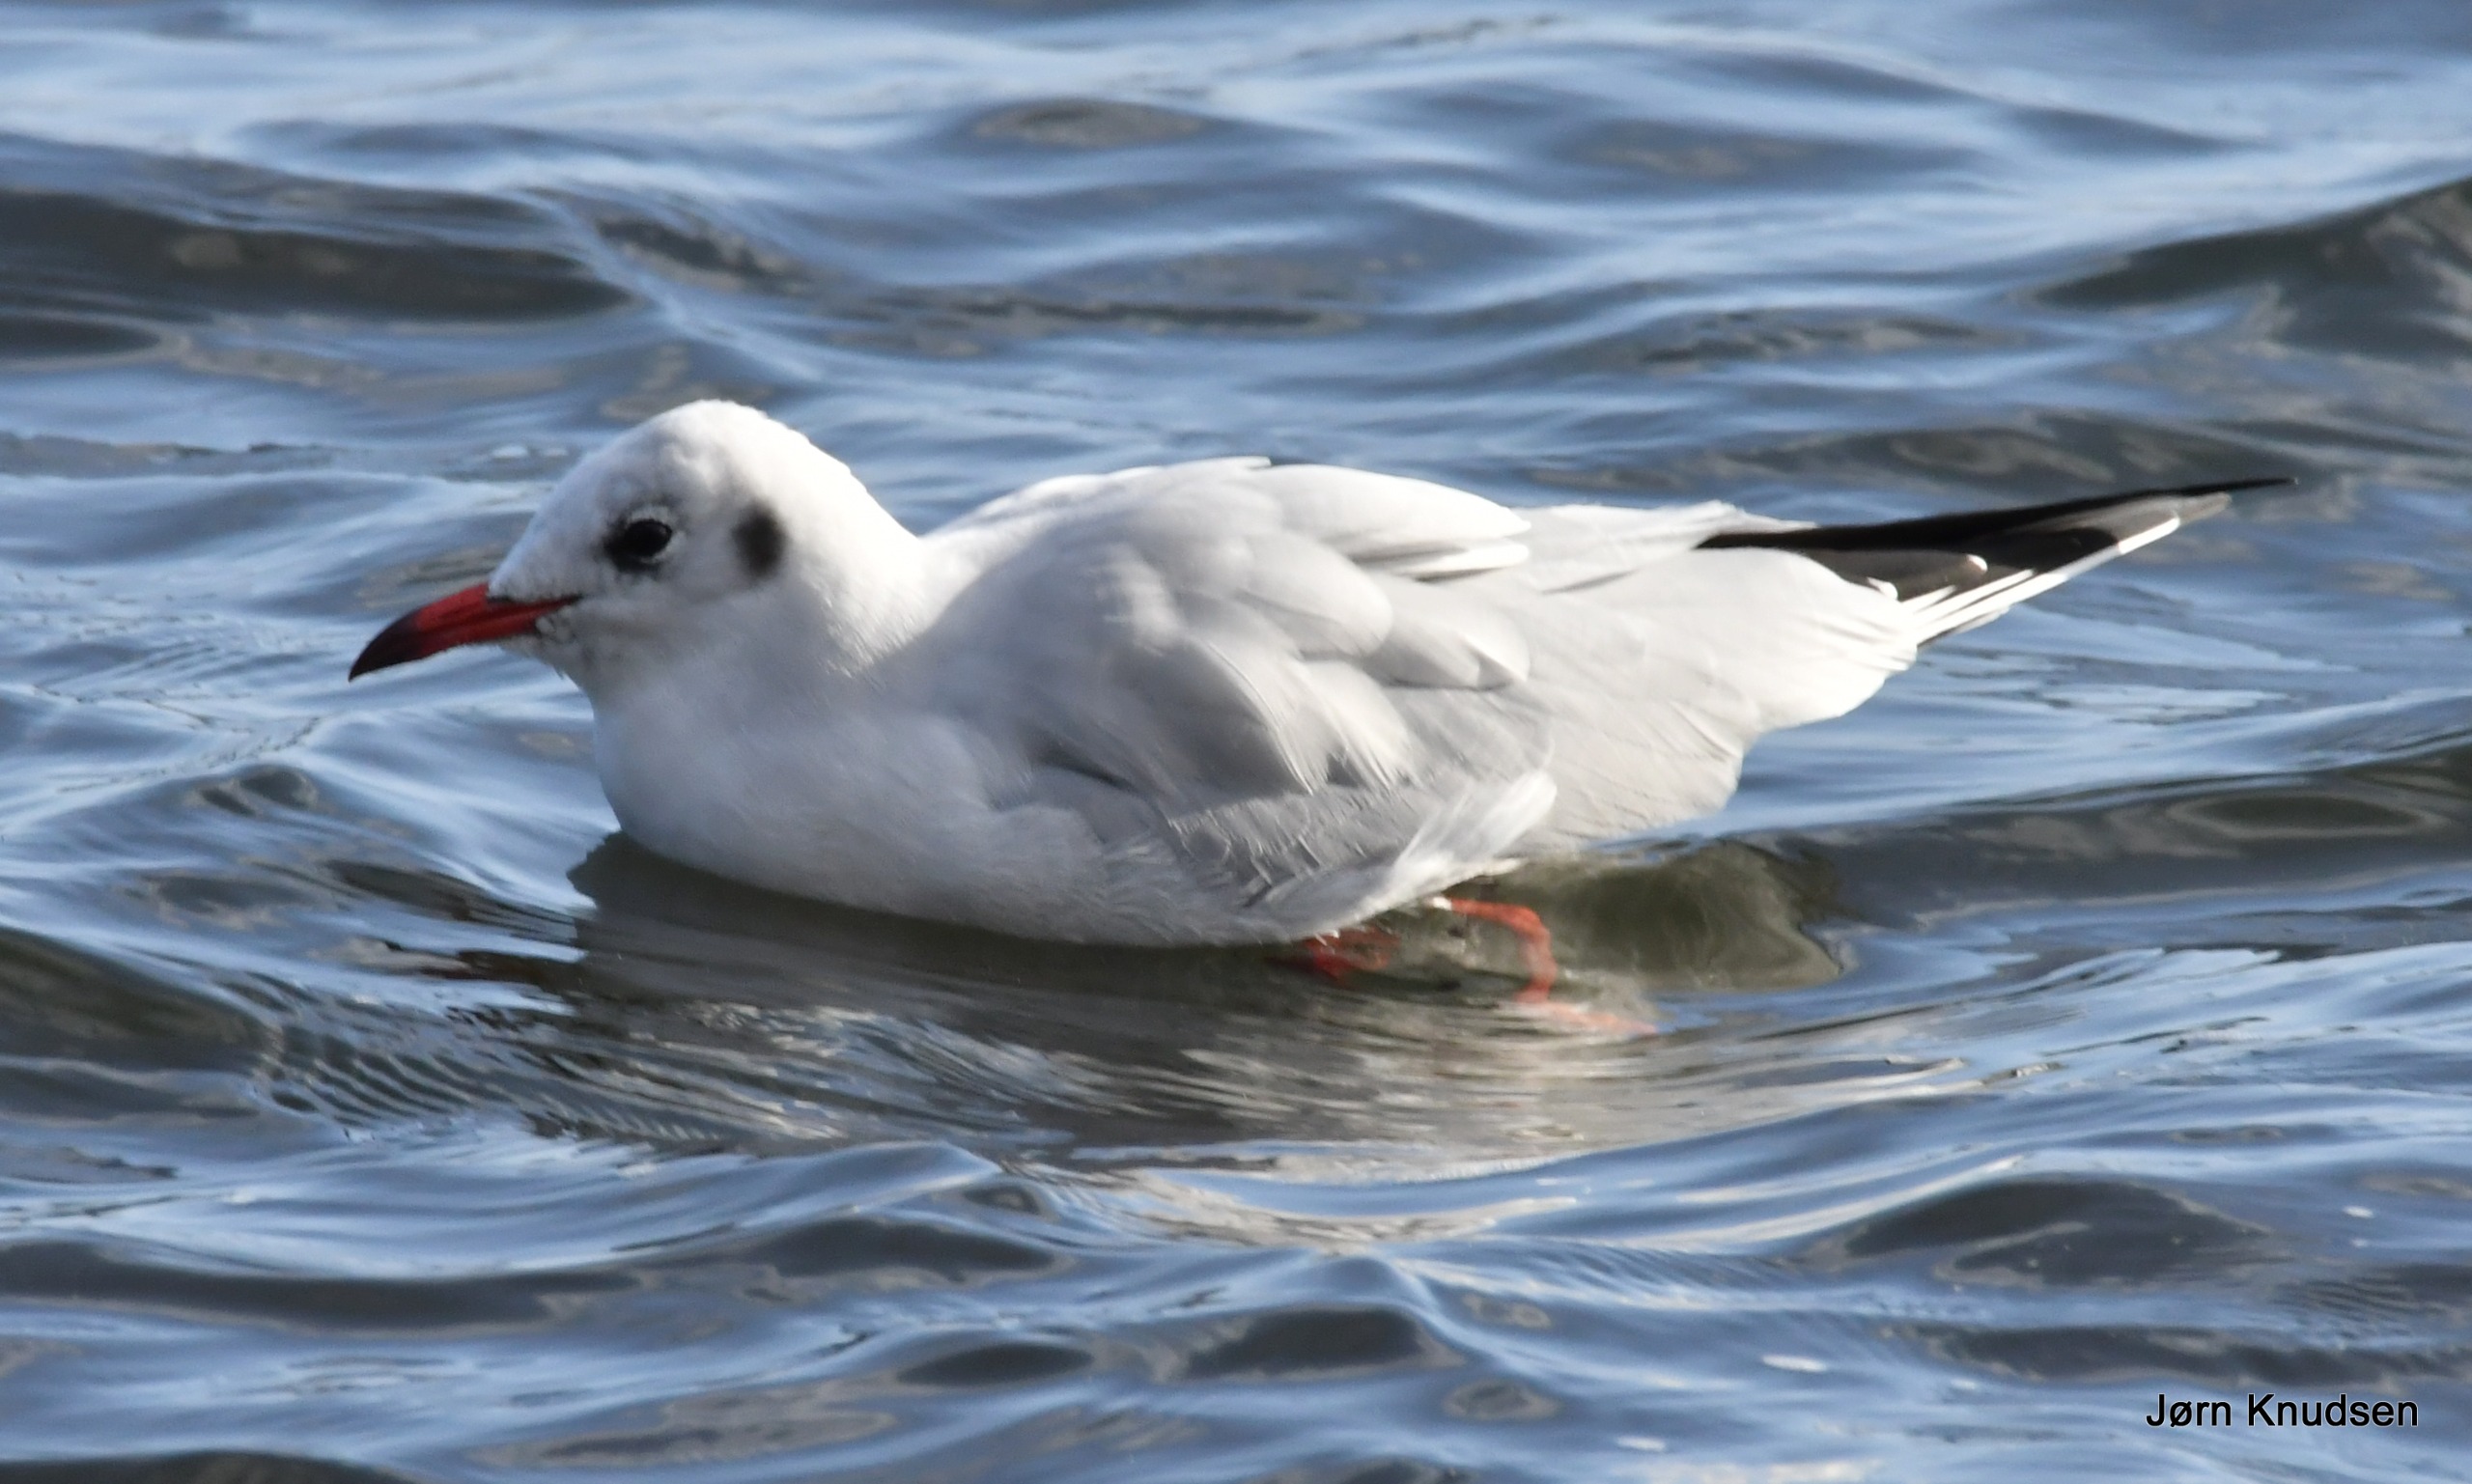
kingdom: Animalia
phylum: Chordata
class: Aves
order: Charadriiformes
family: Laridae
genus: Chroicocephalus
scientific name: Chroicocephalus ridibundus
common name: Hættemåge
